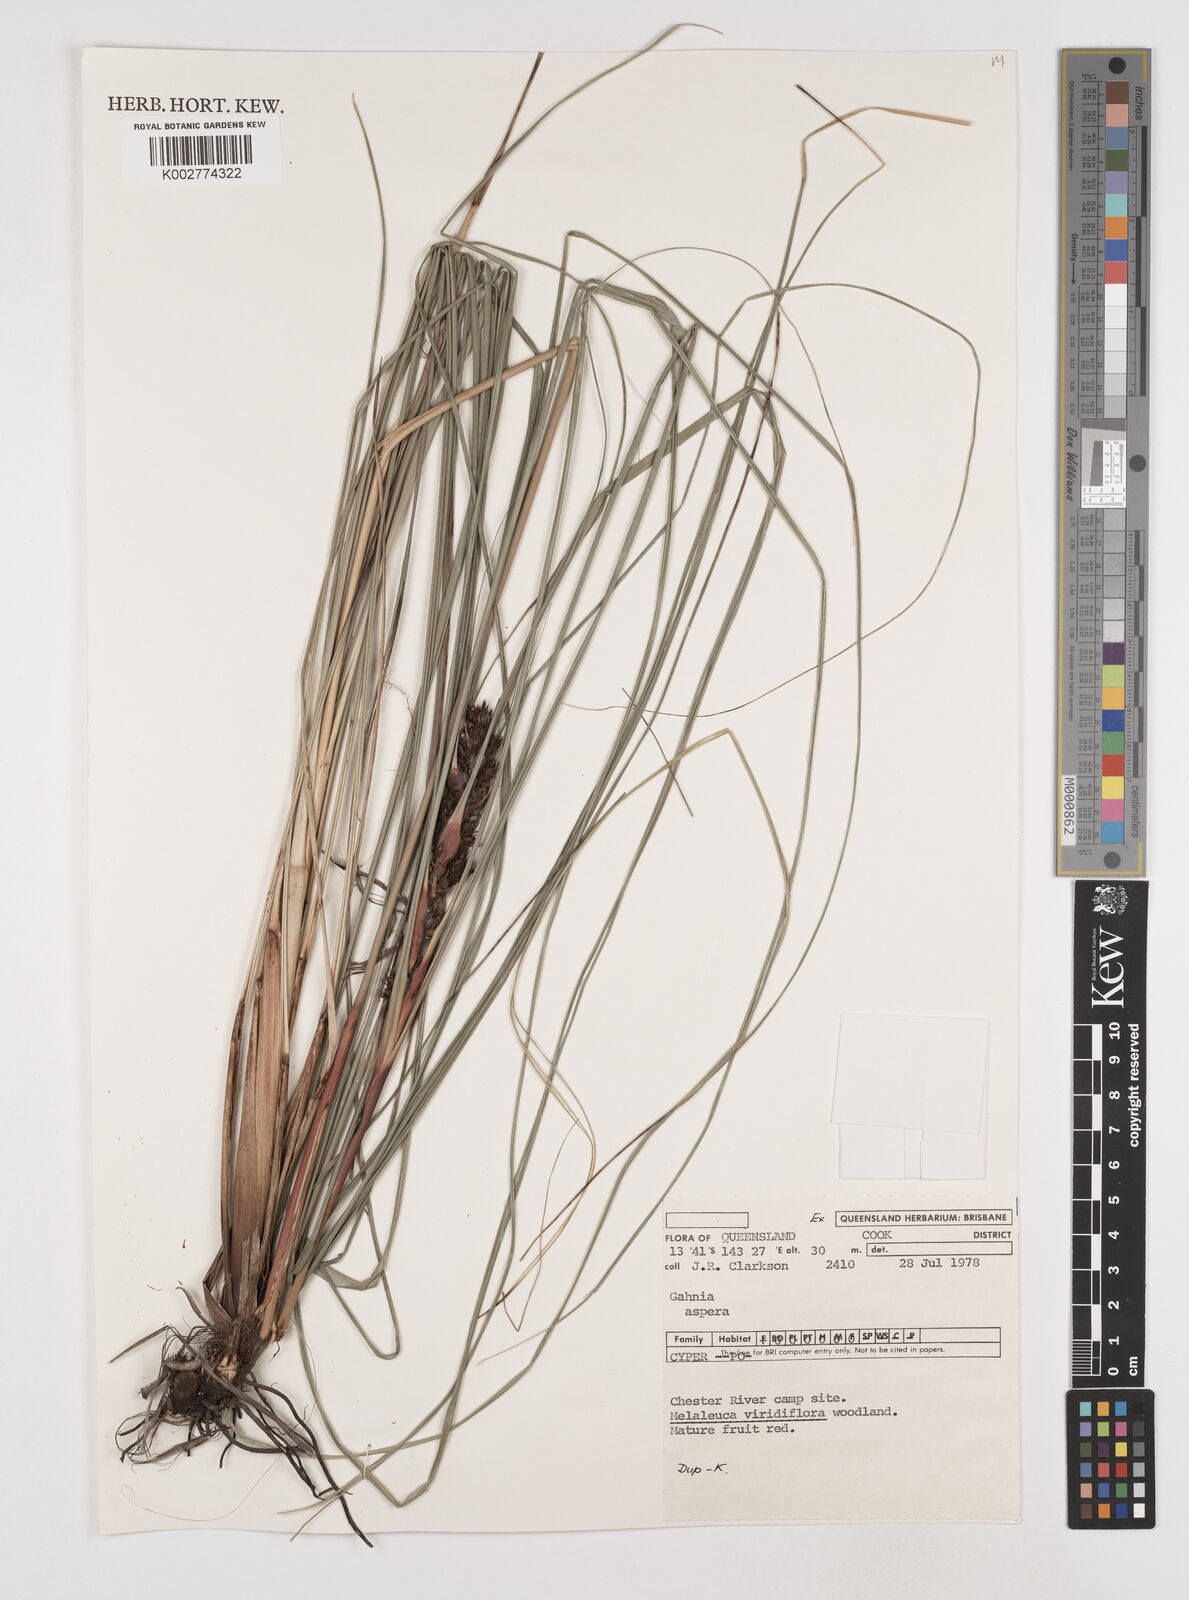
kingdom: Plantae
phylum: Tracheophyta
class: Liliopsida
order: Poales
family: Cyperaceae
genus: Gahnia
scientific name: Gahnia aspera
